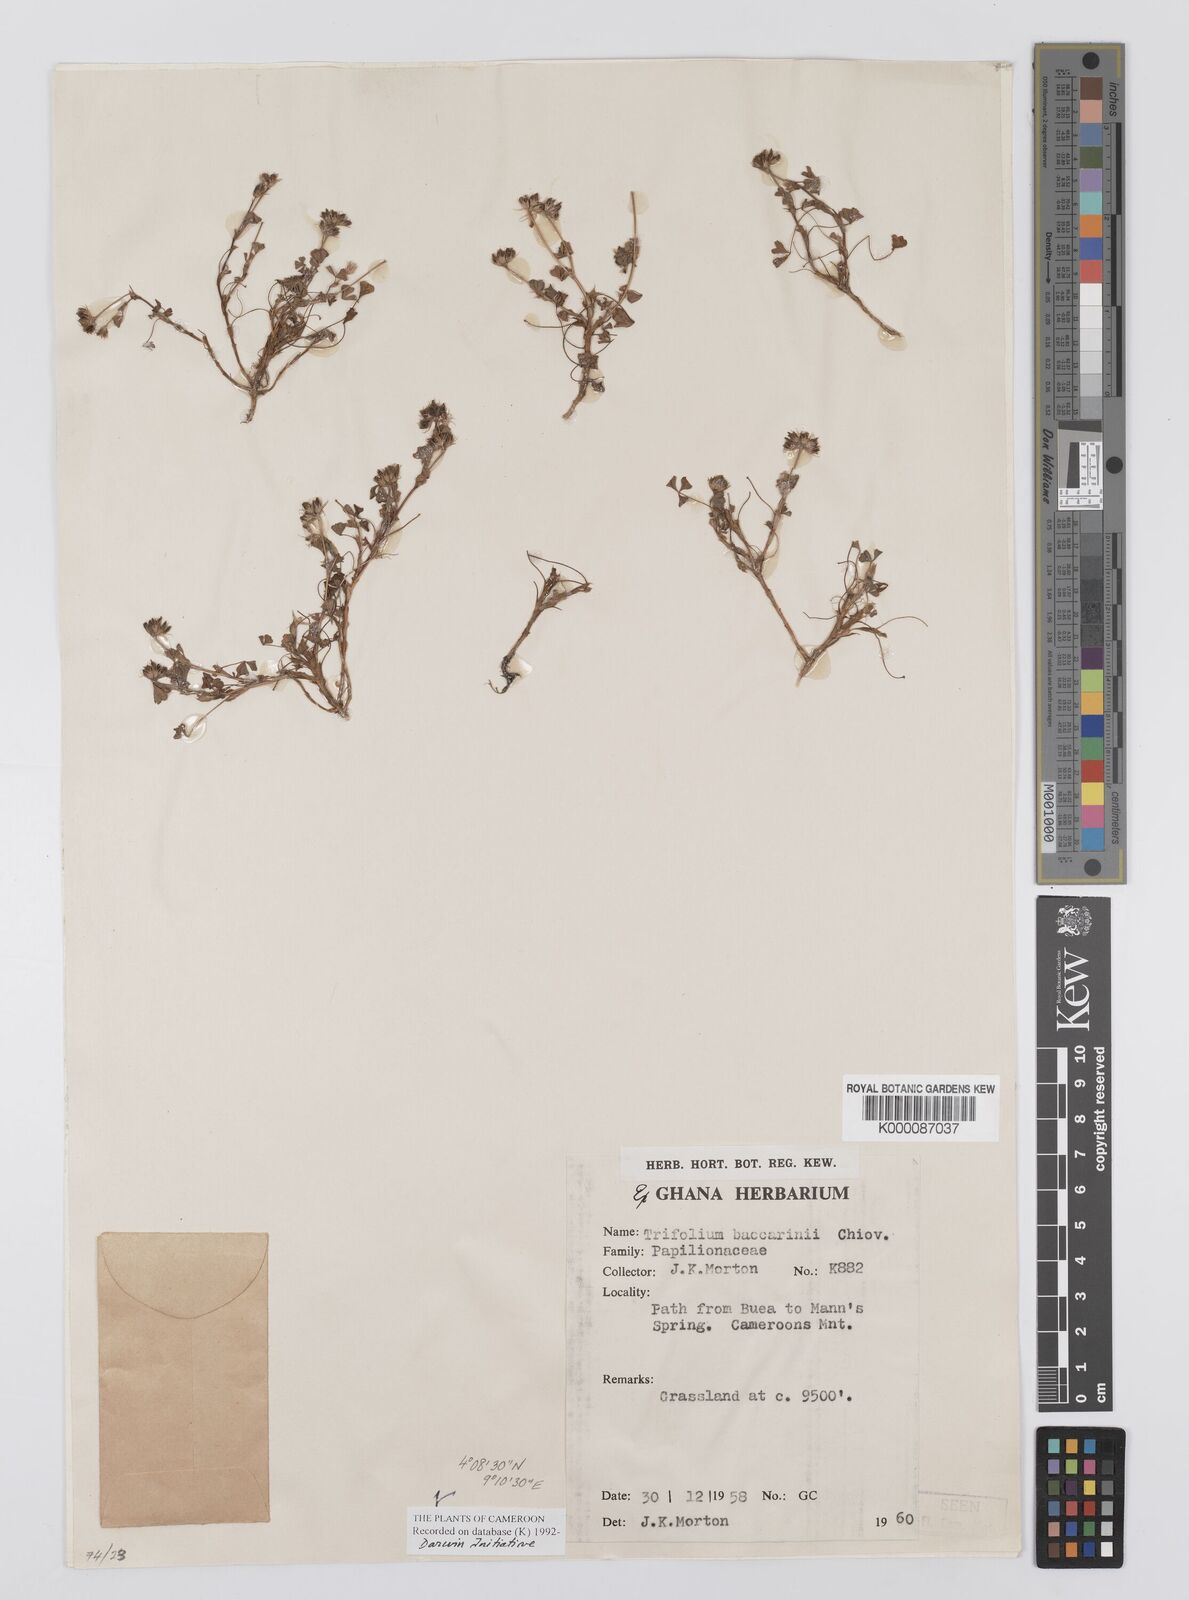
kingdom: Plantae
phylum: Tracheophyta
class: Magnoliopsida
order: Fabales
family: Fabaceae
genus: Trifolium
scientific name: Trifolium baccarinii
